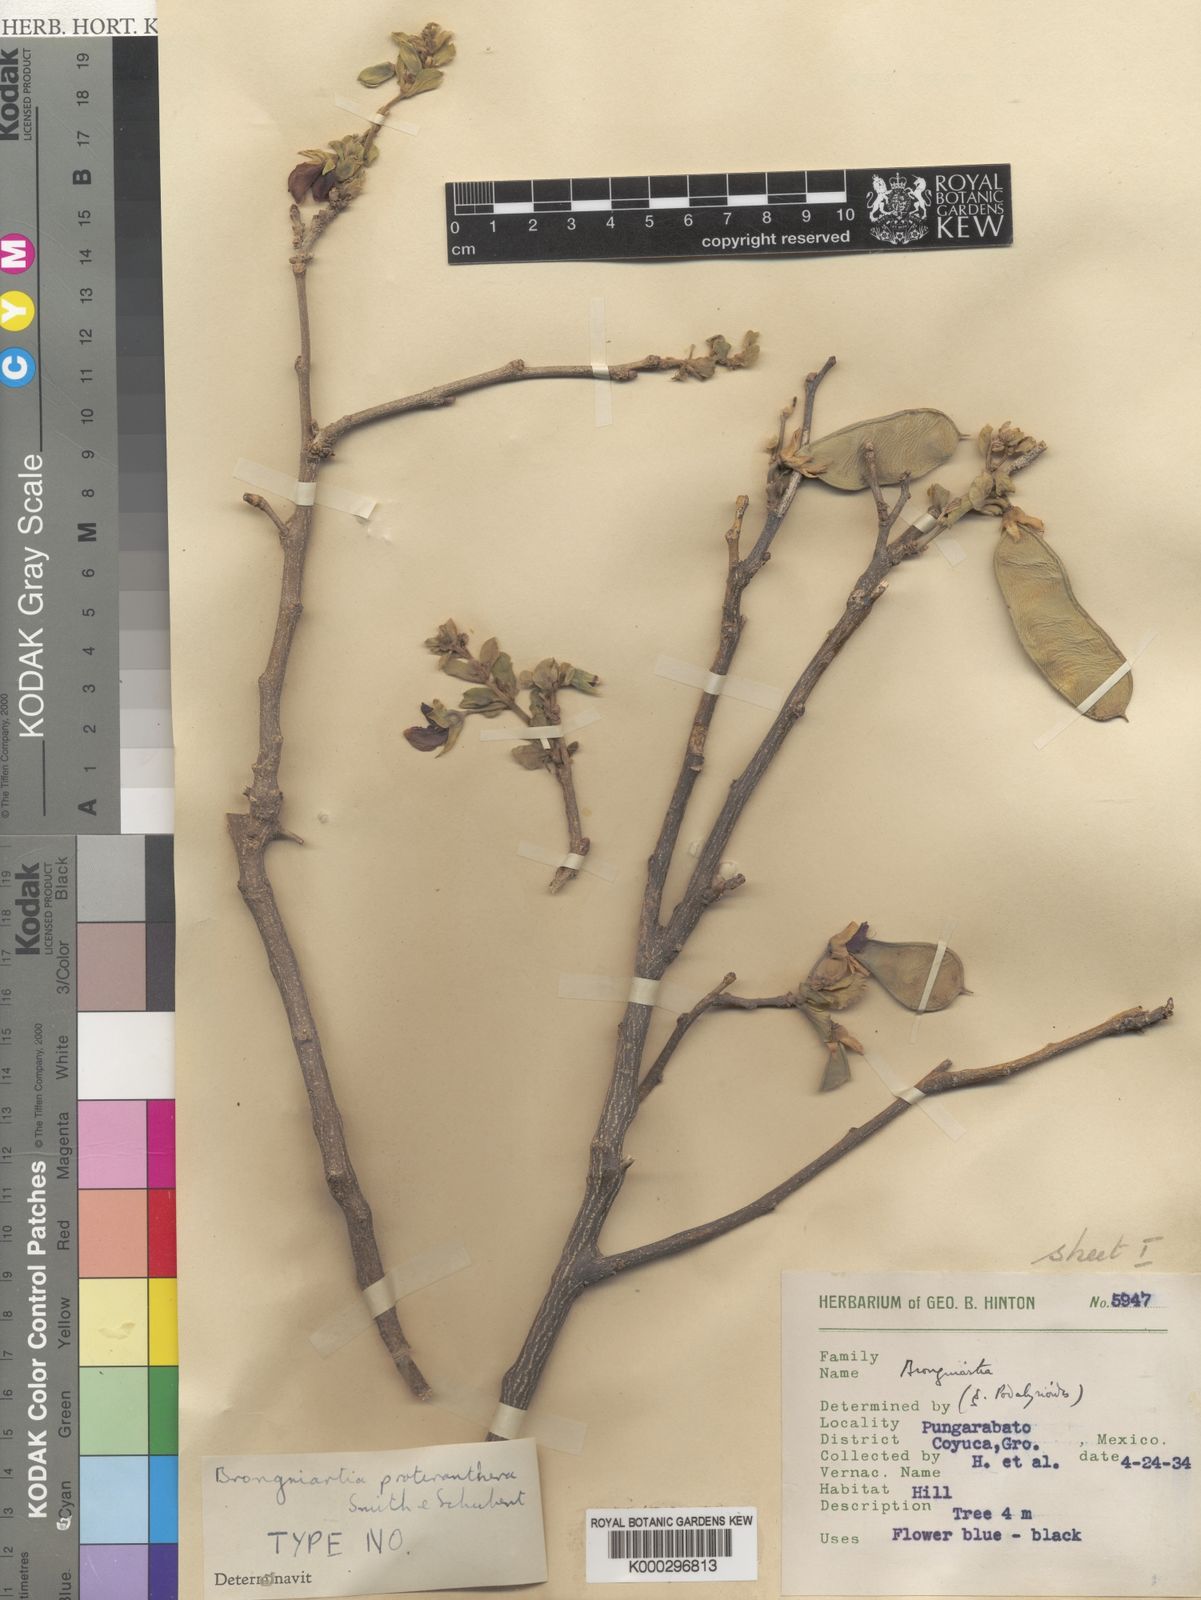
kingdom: Plantae
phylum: Tracheophyta
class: Magnoliopsida
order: Fabales
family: Fabaceae
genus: Brongniartia
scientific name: Brongniartia alamosana
